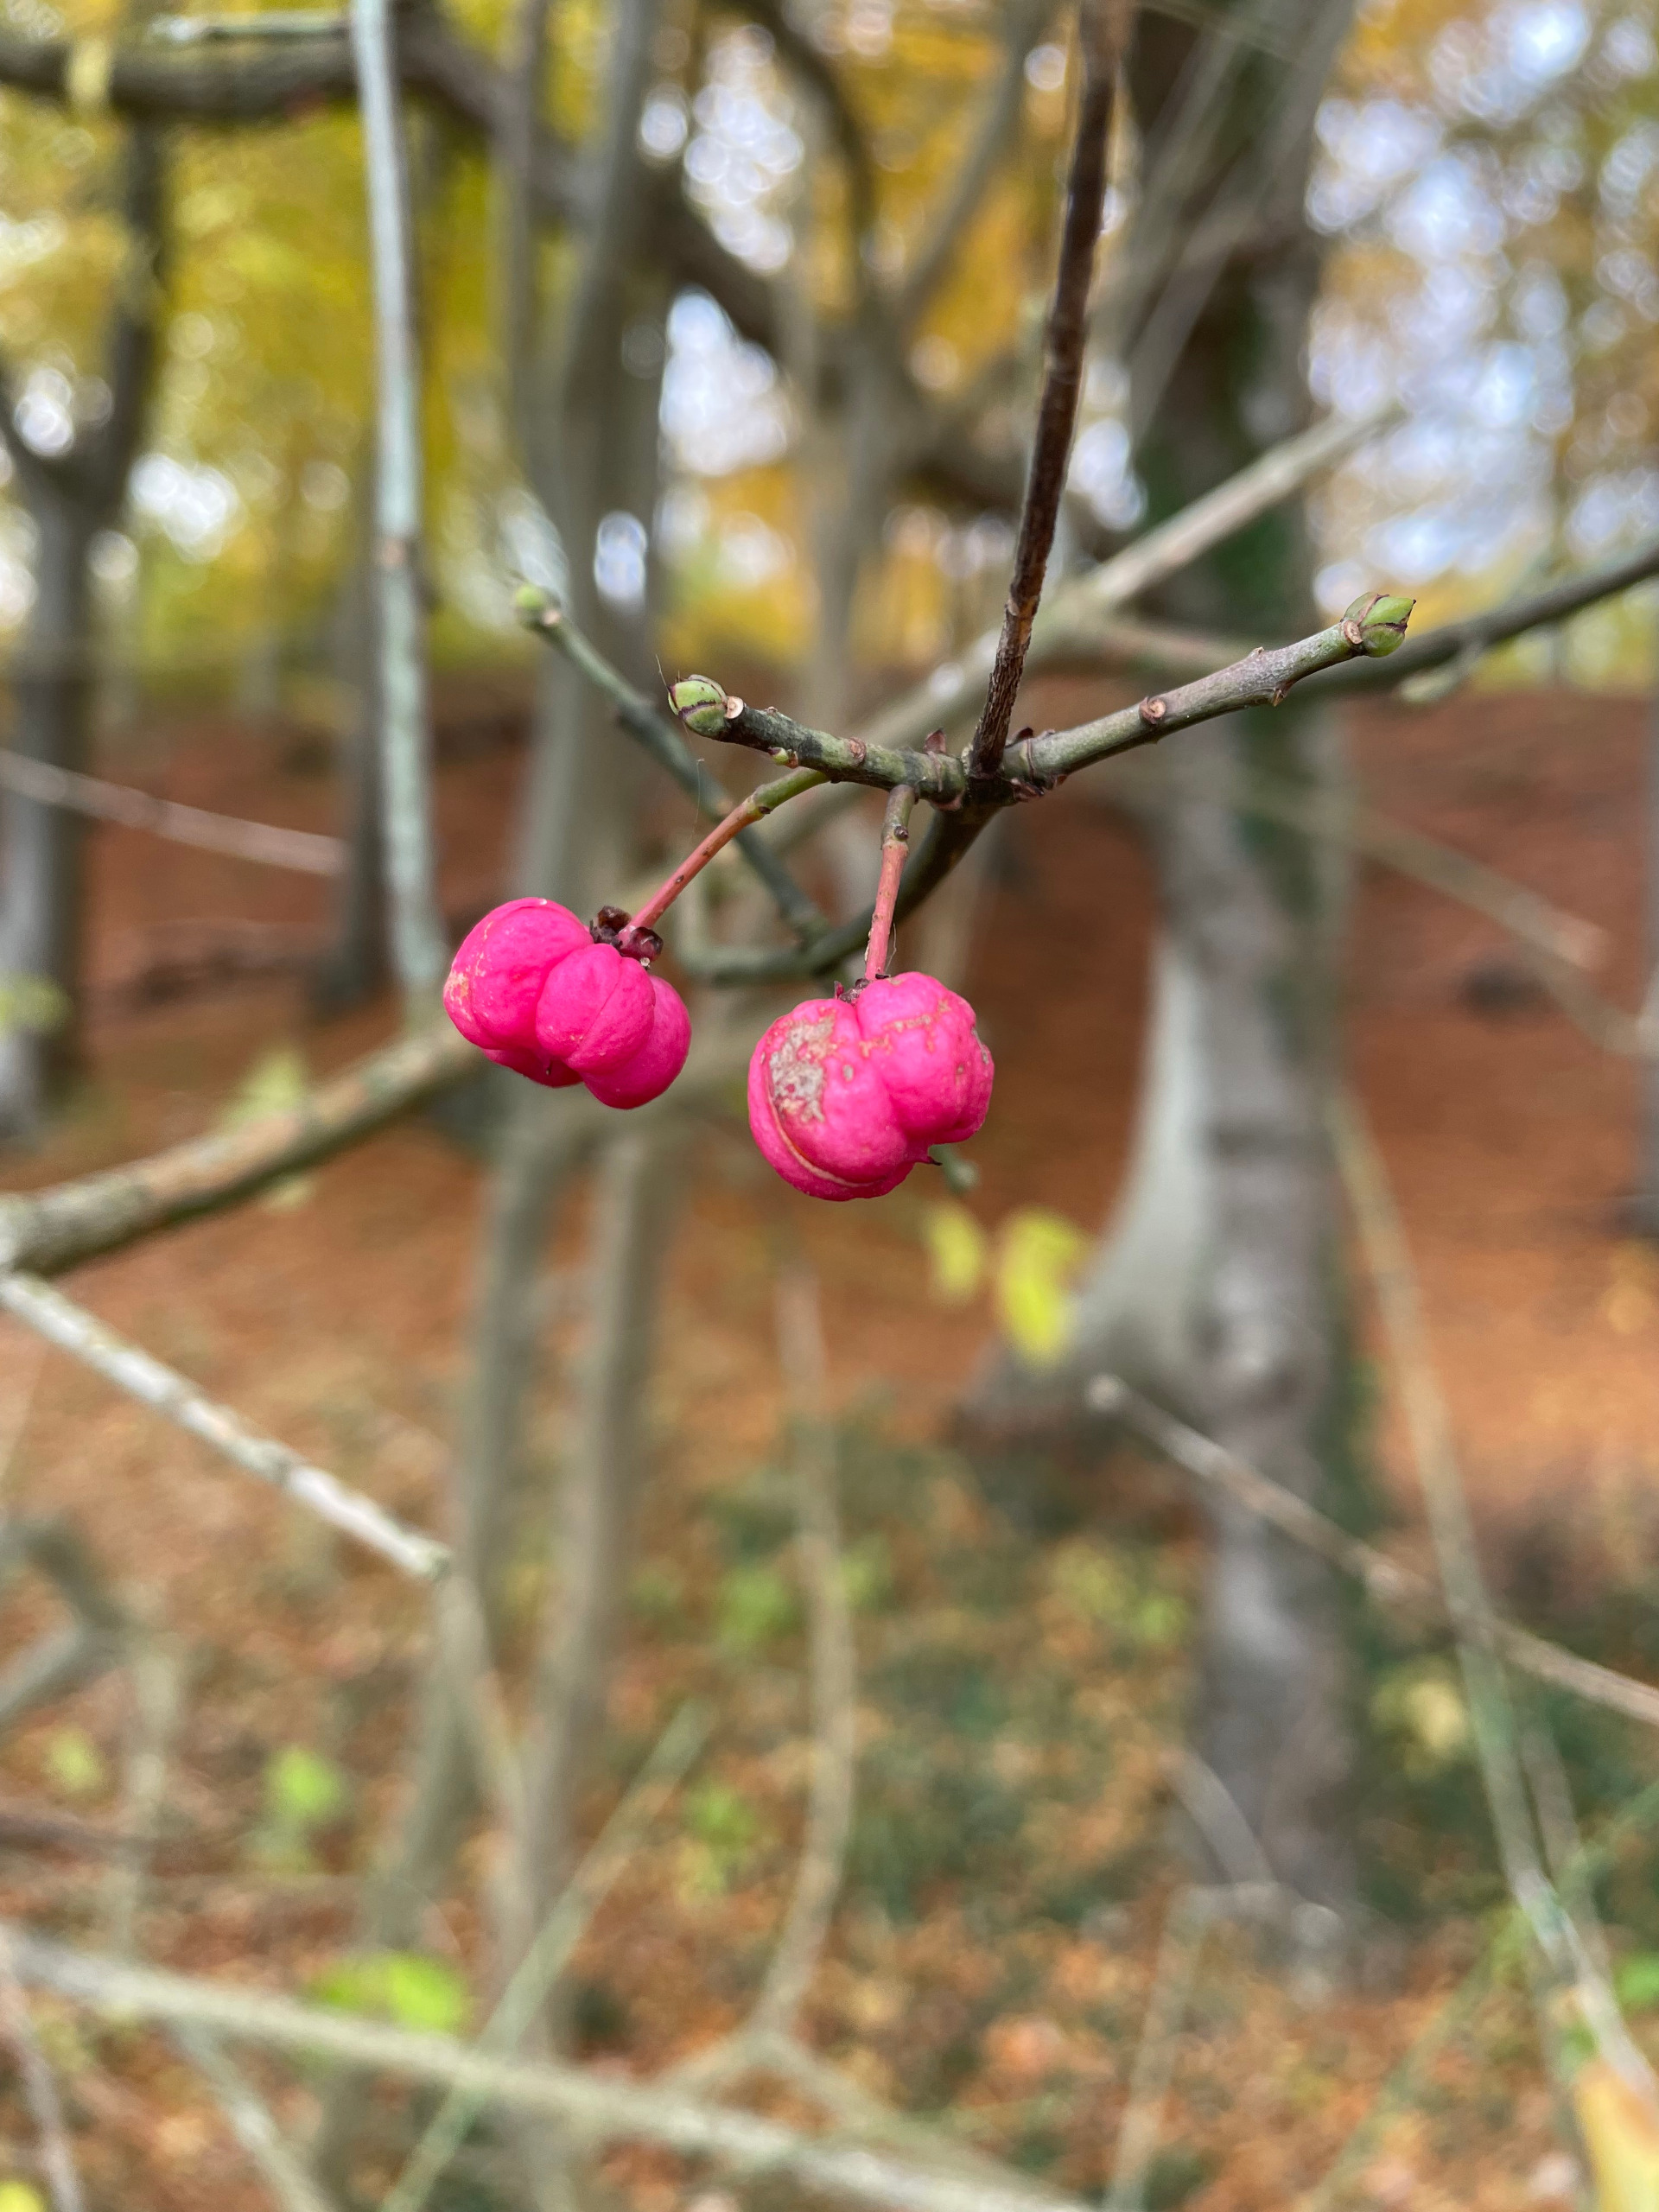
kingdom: Plantae
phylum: Tracheophyta
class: Magnoliopsida
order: Celastrales
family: Celastraceae
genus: Euonymus
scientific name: Euonymus europaeus
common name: Benved
